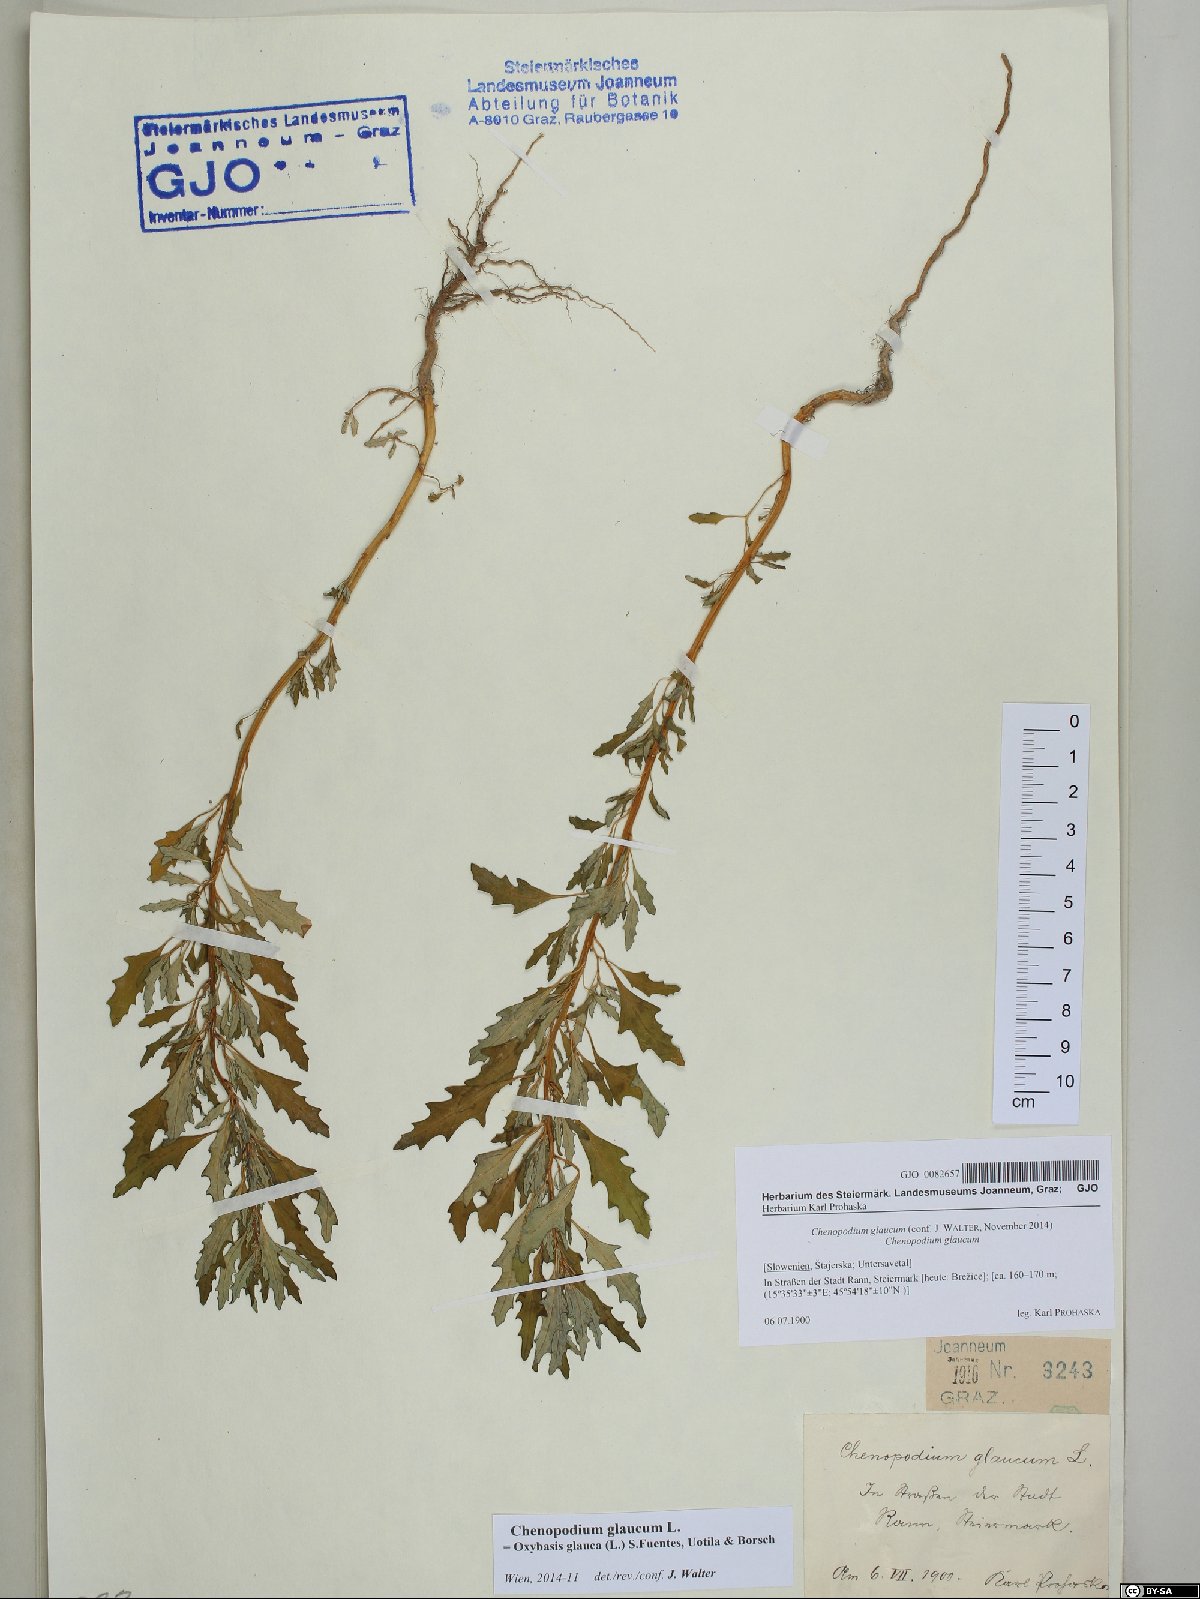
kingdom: Plantae
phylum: Tracheophyta
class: Magnoliopsida
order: Caryophyllales
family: Amaranthaceae
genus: Oxybasis
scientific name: Oxybasis glauca
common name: Glaucous goosefoot
